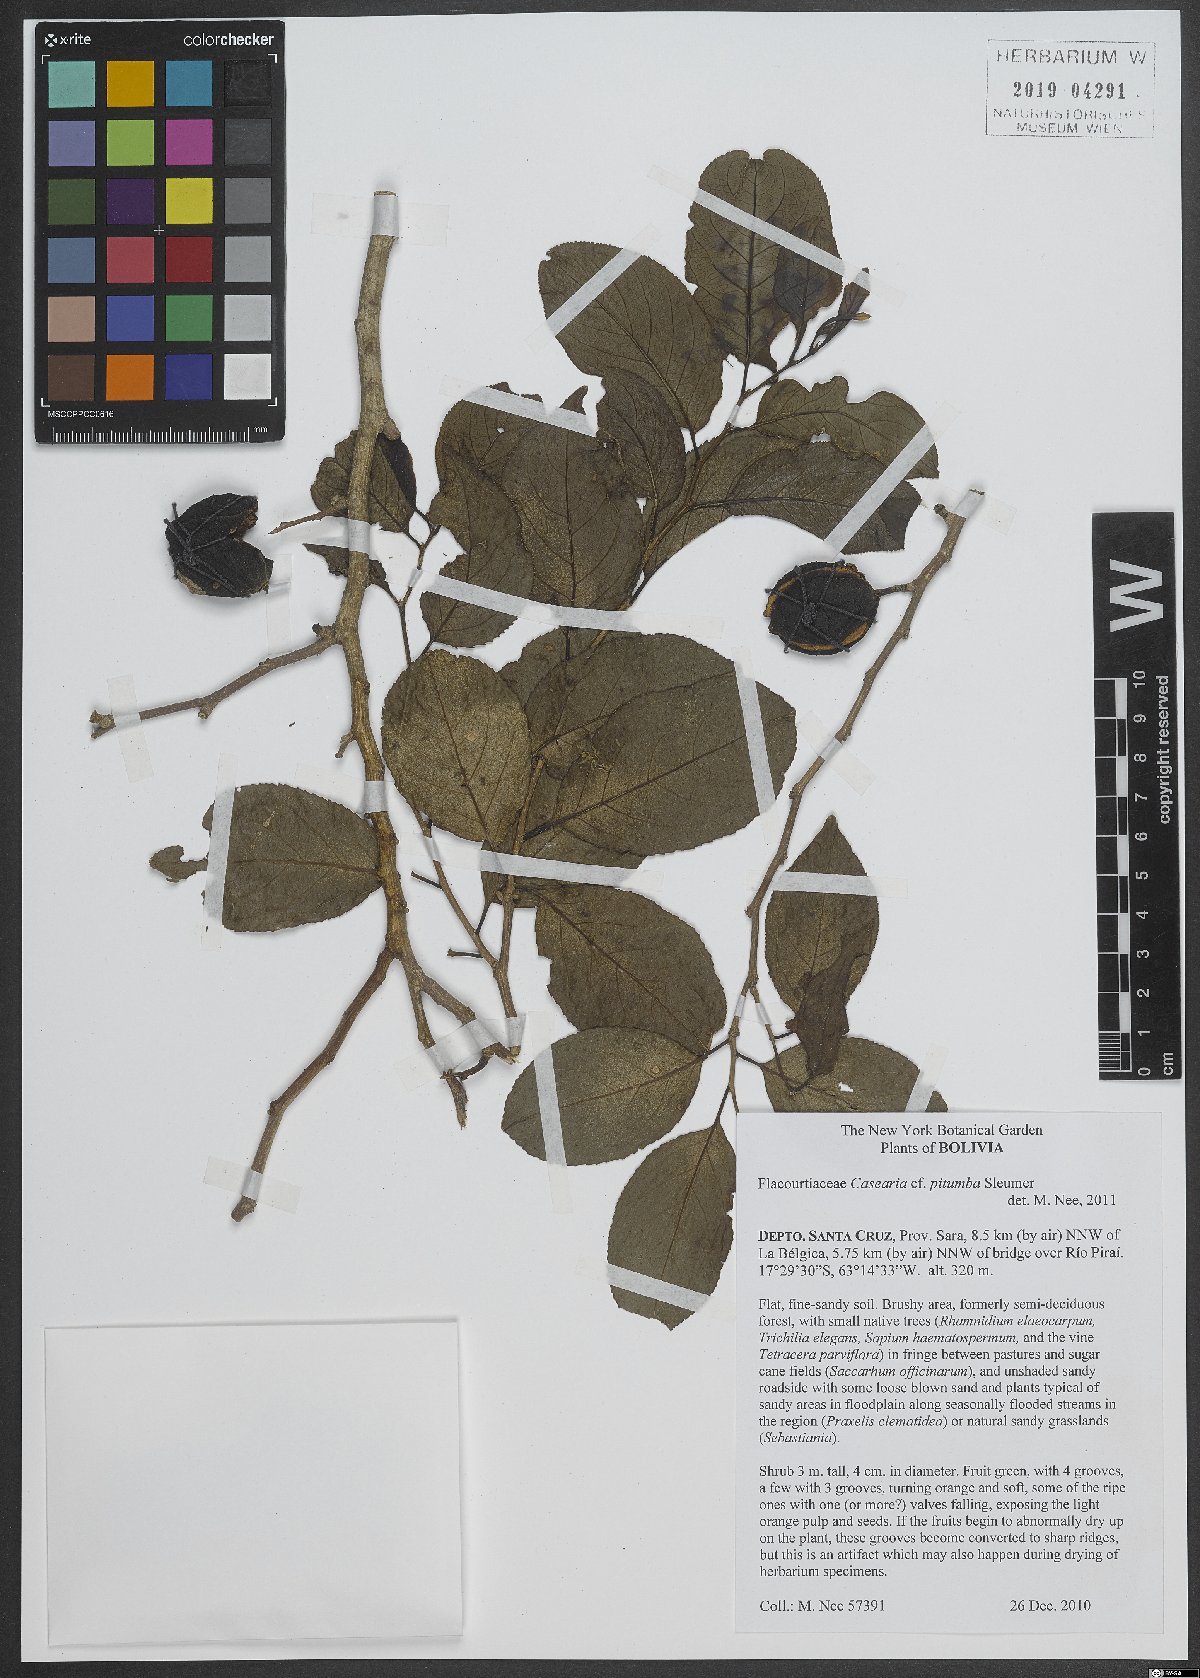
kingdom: Plantae
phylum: Tracheophyta
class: Magnoliopsida
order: Malpighiales
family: Salicaceae
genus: Casearia
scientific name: Casearia pitumba
